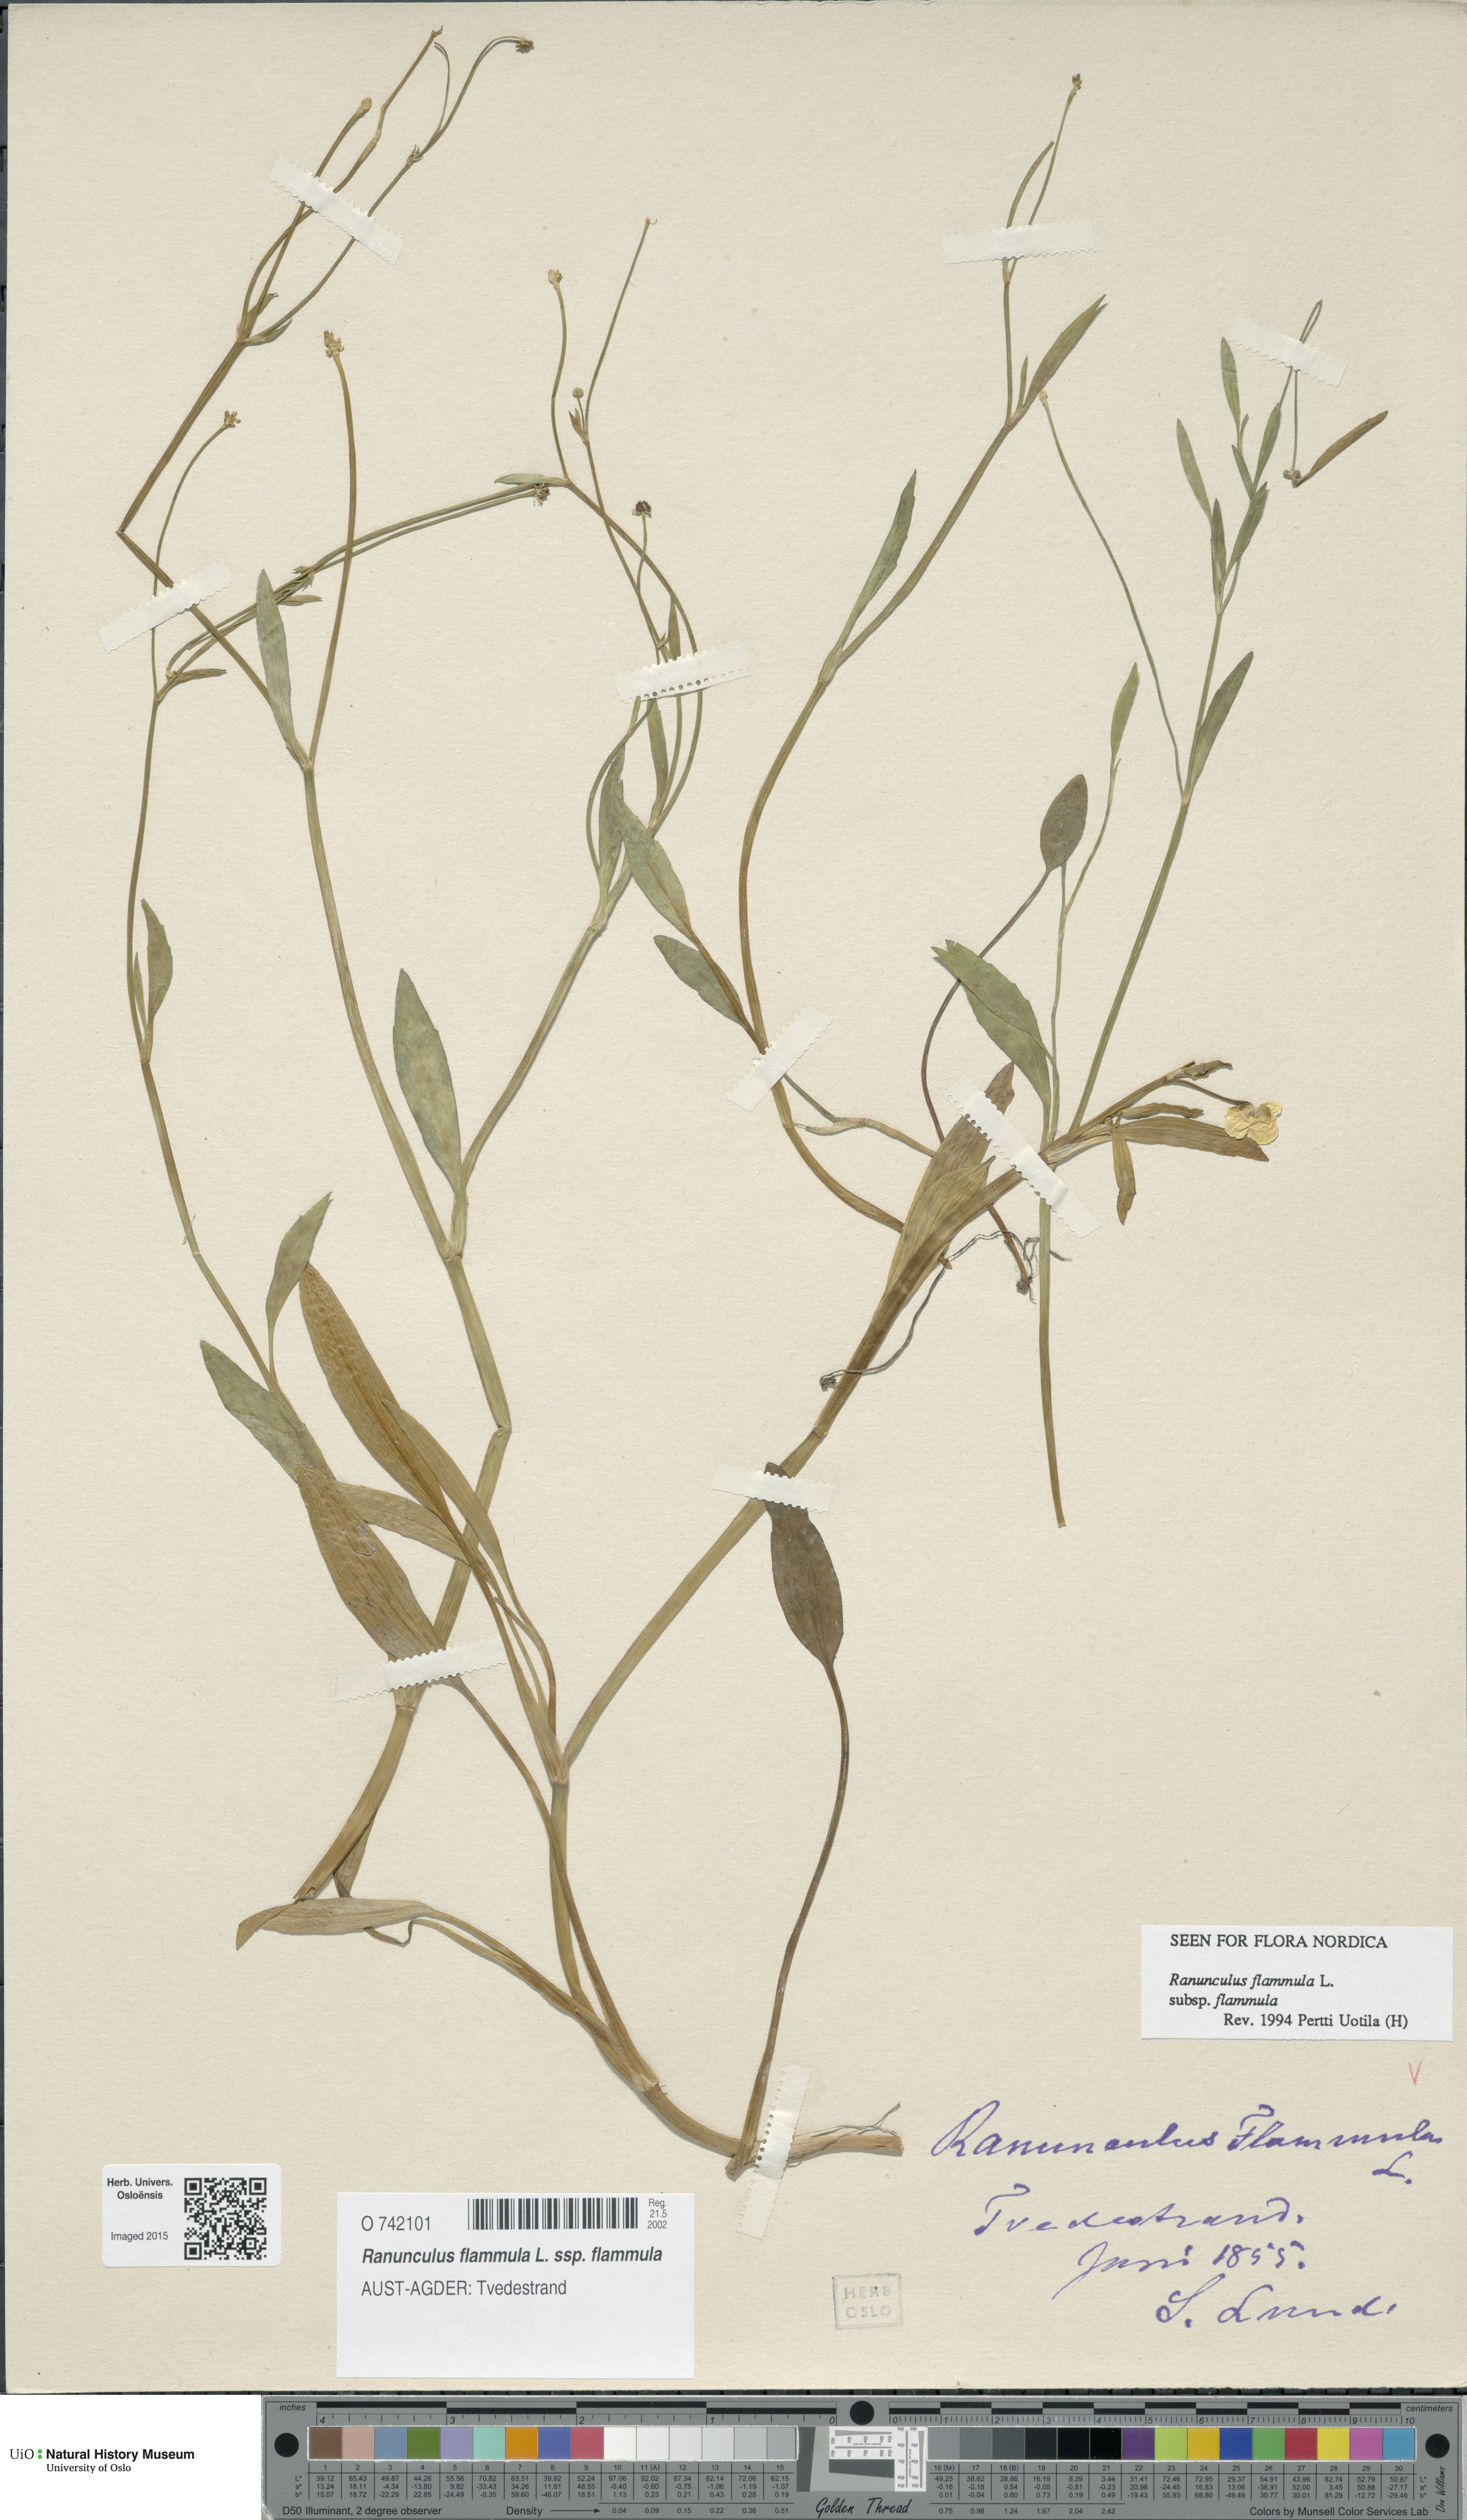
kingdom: Plantae
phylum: Tracheophyta
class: Magnoliopsida
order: Ranunculales
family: Ranunculaceae
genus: Ranunculus
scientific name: Ranunculus flammula
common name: Lesser spearwort
